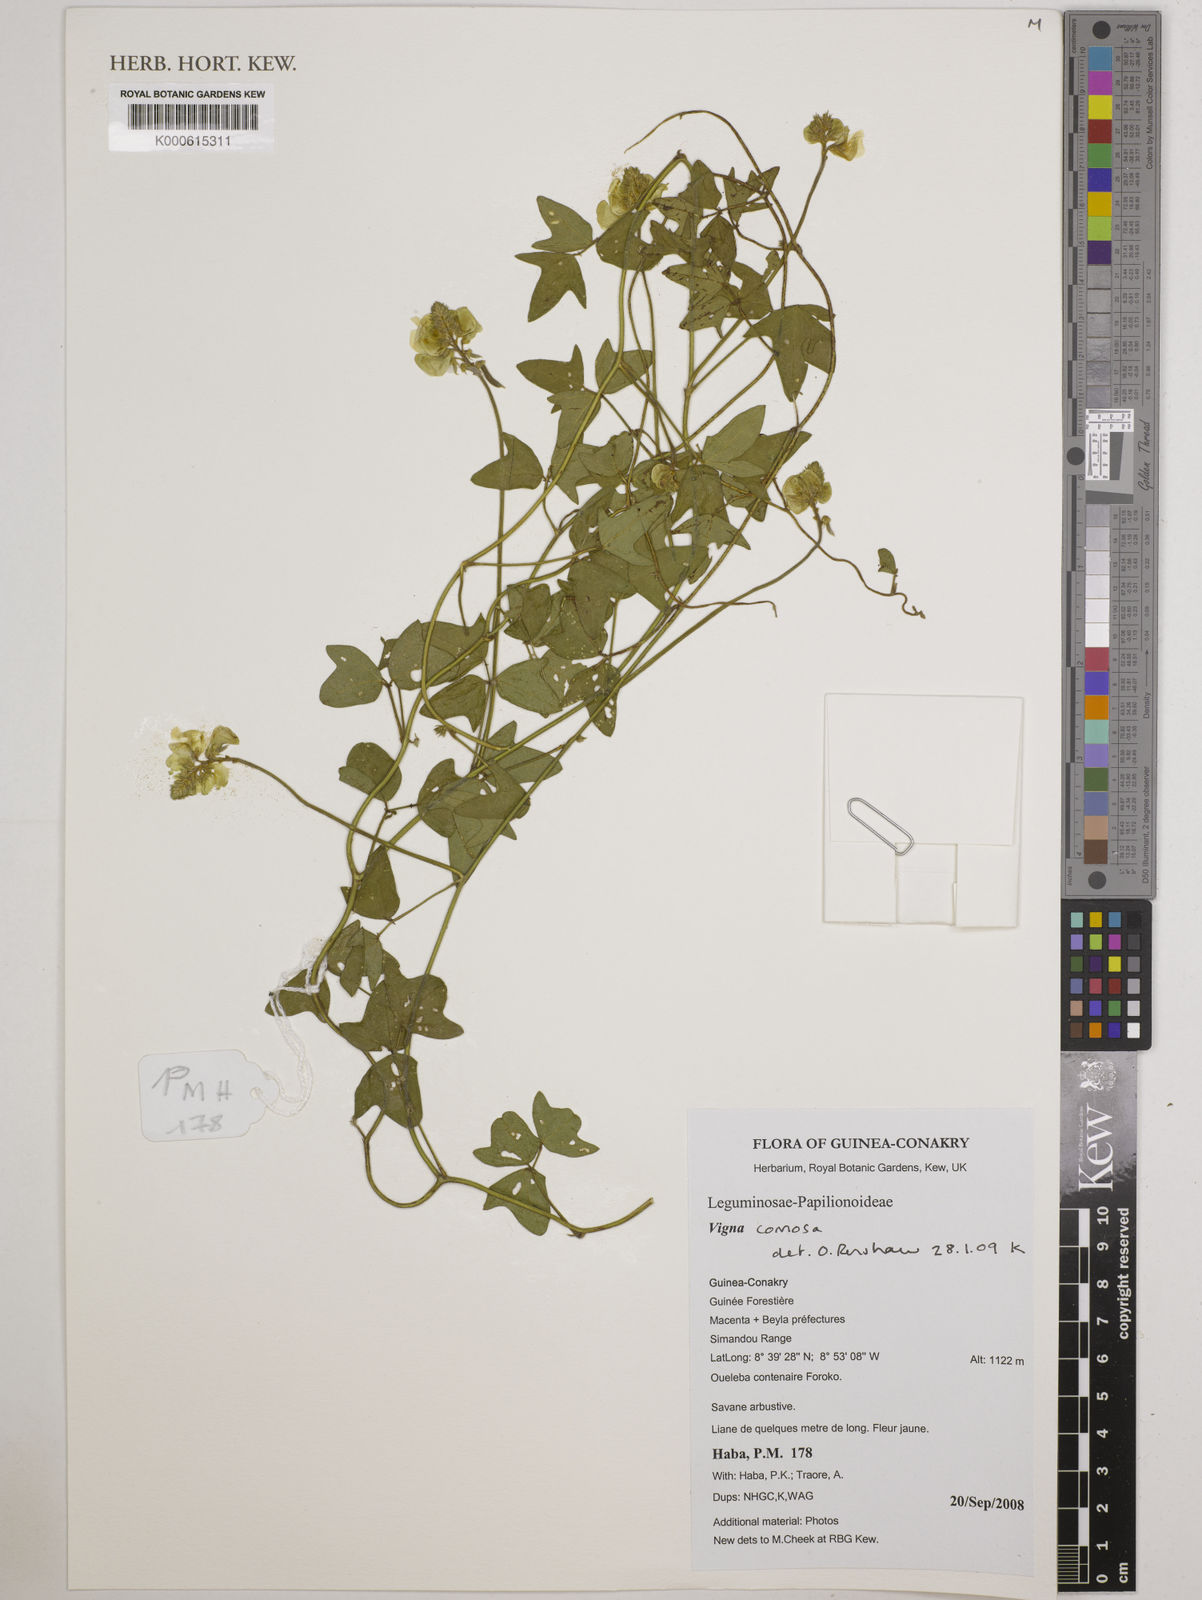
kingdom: Plantae
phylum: Tracheophyta
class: Magnoliopsida
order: Fabales
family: Fabaceae
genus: Vigna
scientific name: Vigna comosa
